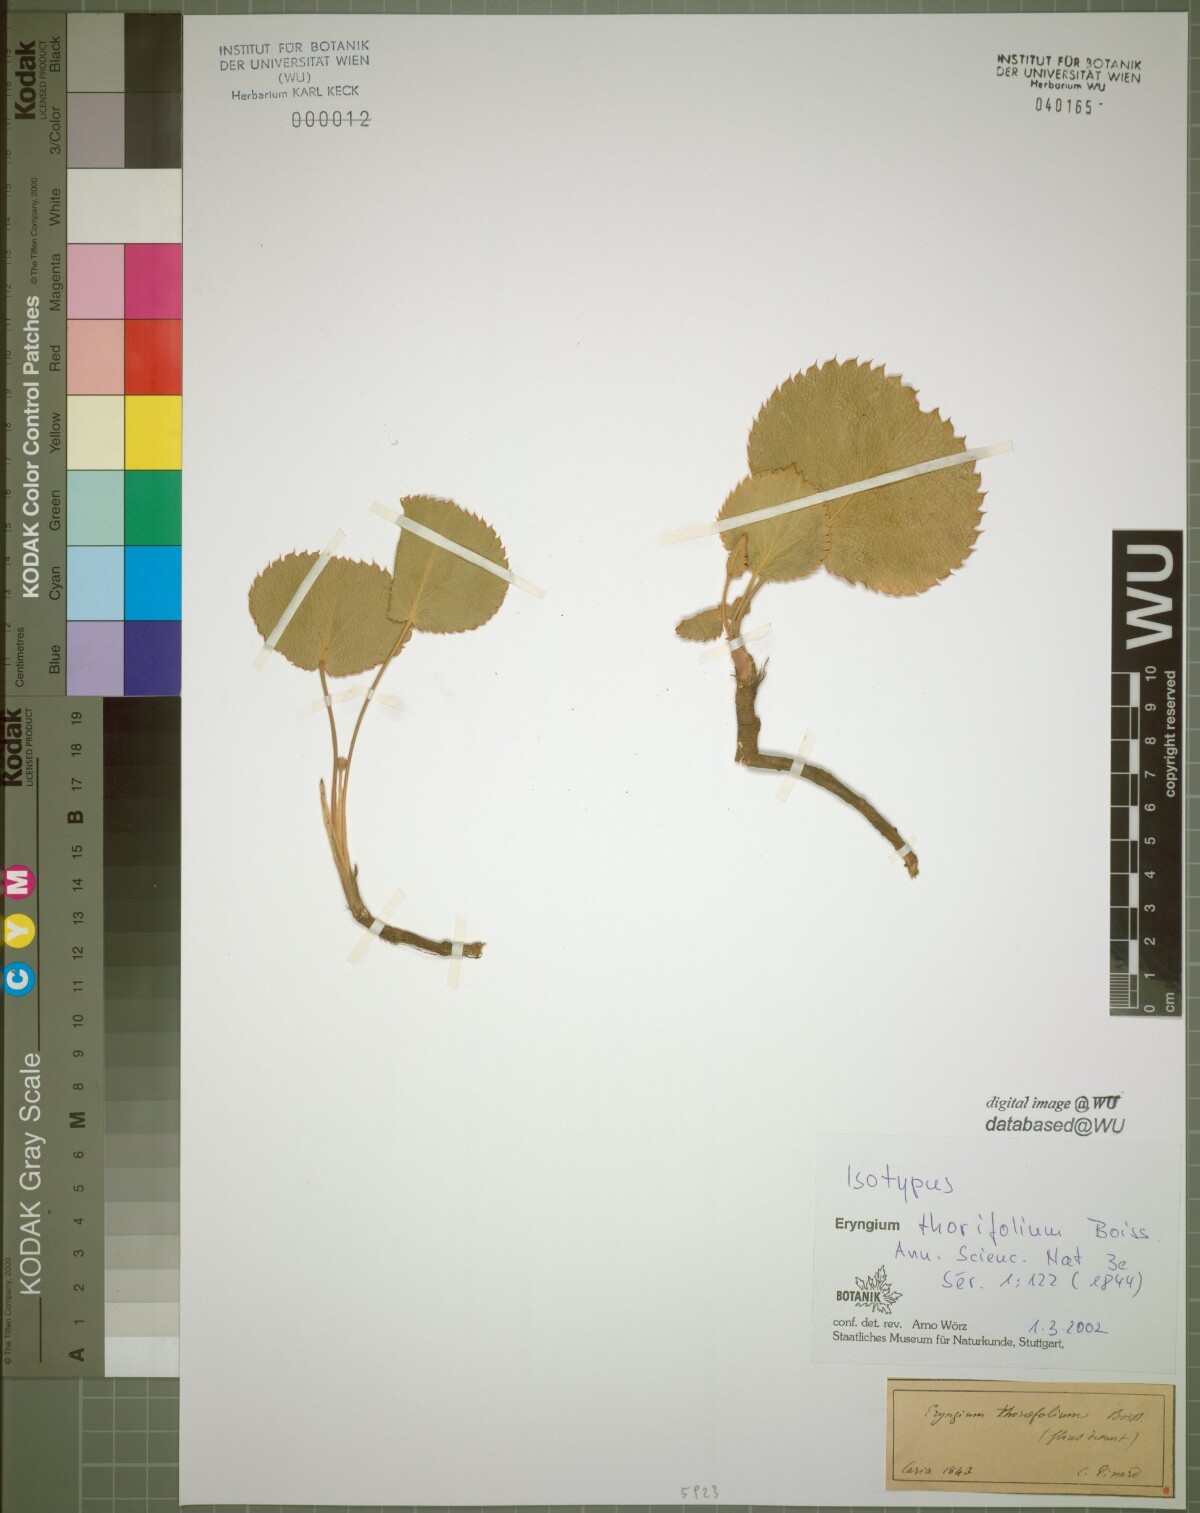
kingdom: Plantae
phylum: Tracheophyta
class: Magnoliopsida
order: Apiales
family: Apiaceae
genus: Eryngium
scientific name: Eryngium thorifolium
